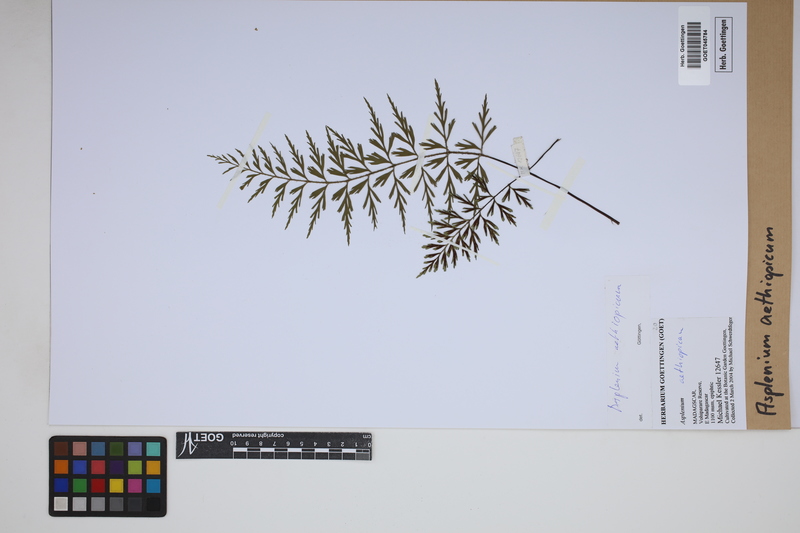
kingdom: Plantae
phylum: Tracheophyta
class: Polypodiopsida
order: Polypodiales
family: Aspleniaceae
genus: Asplenium
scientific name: Asplenium aethiopicum
